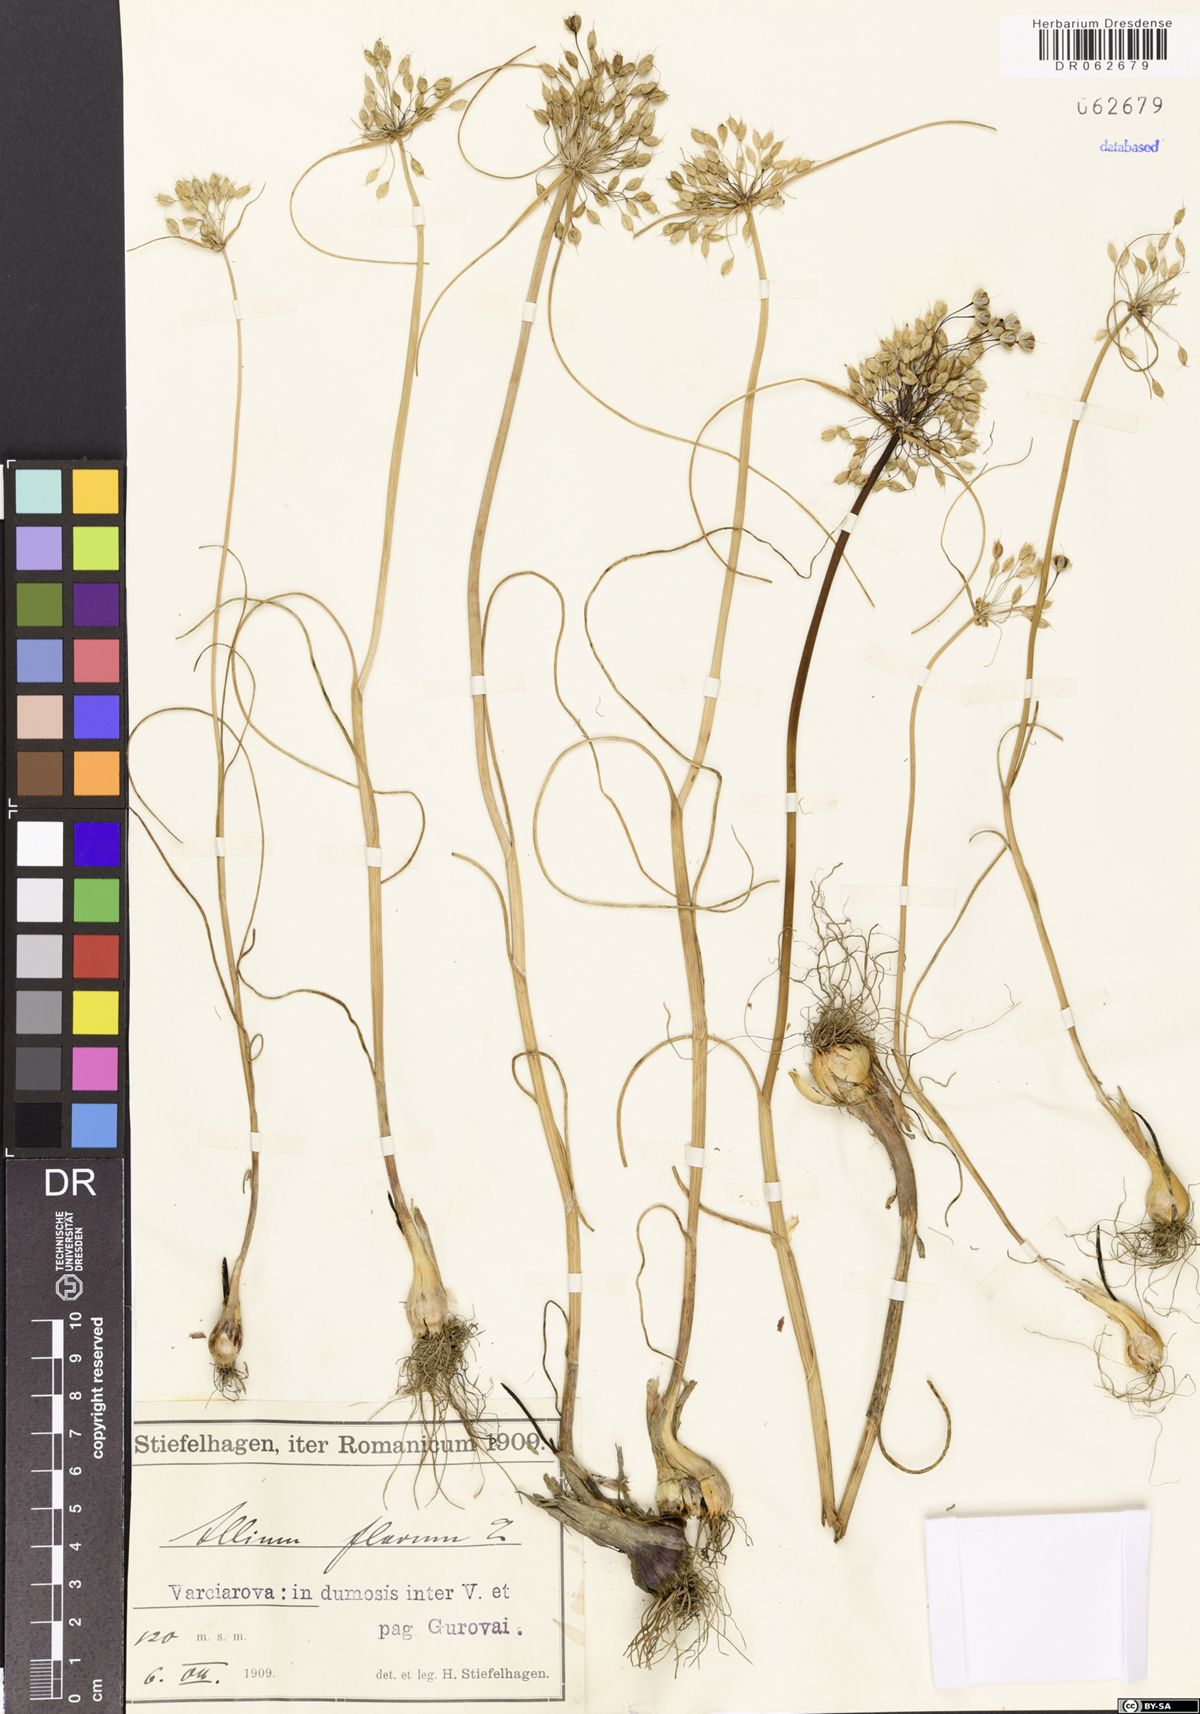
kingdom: Plantae
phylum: Tracheophyta
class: Liliopsida
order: Asparagales
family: Amaryllidaceae
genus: Allium
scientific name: Allium flavum
